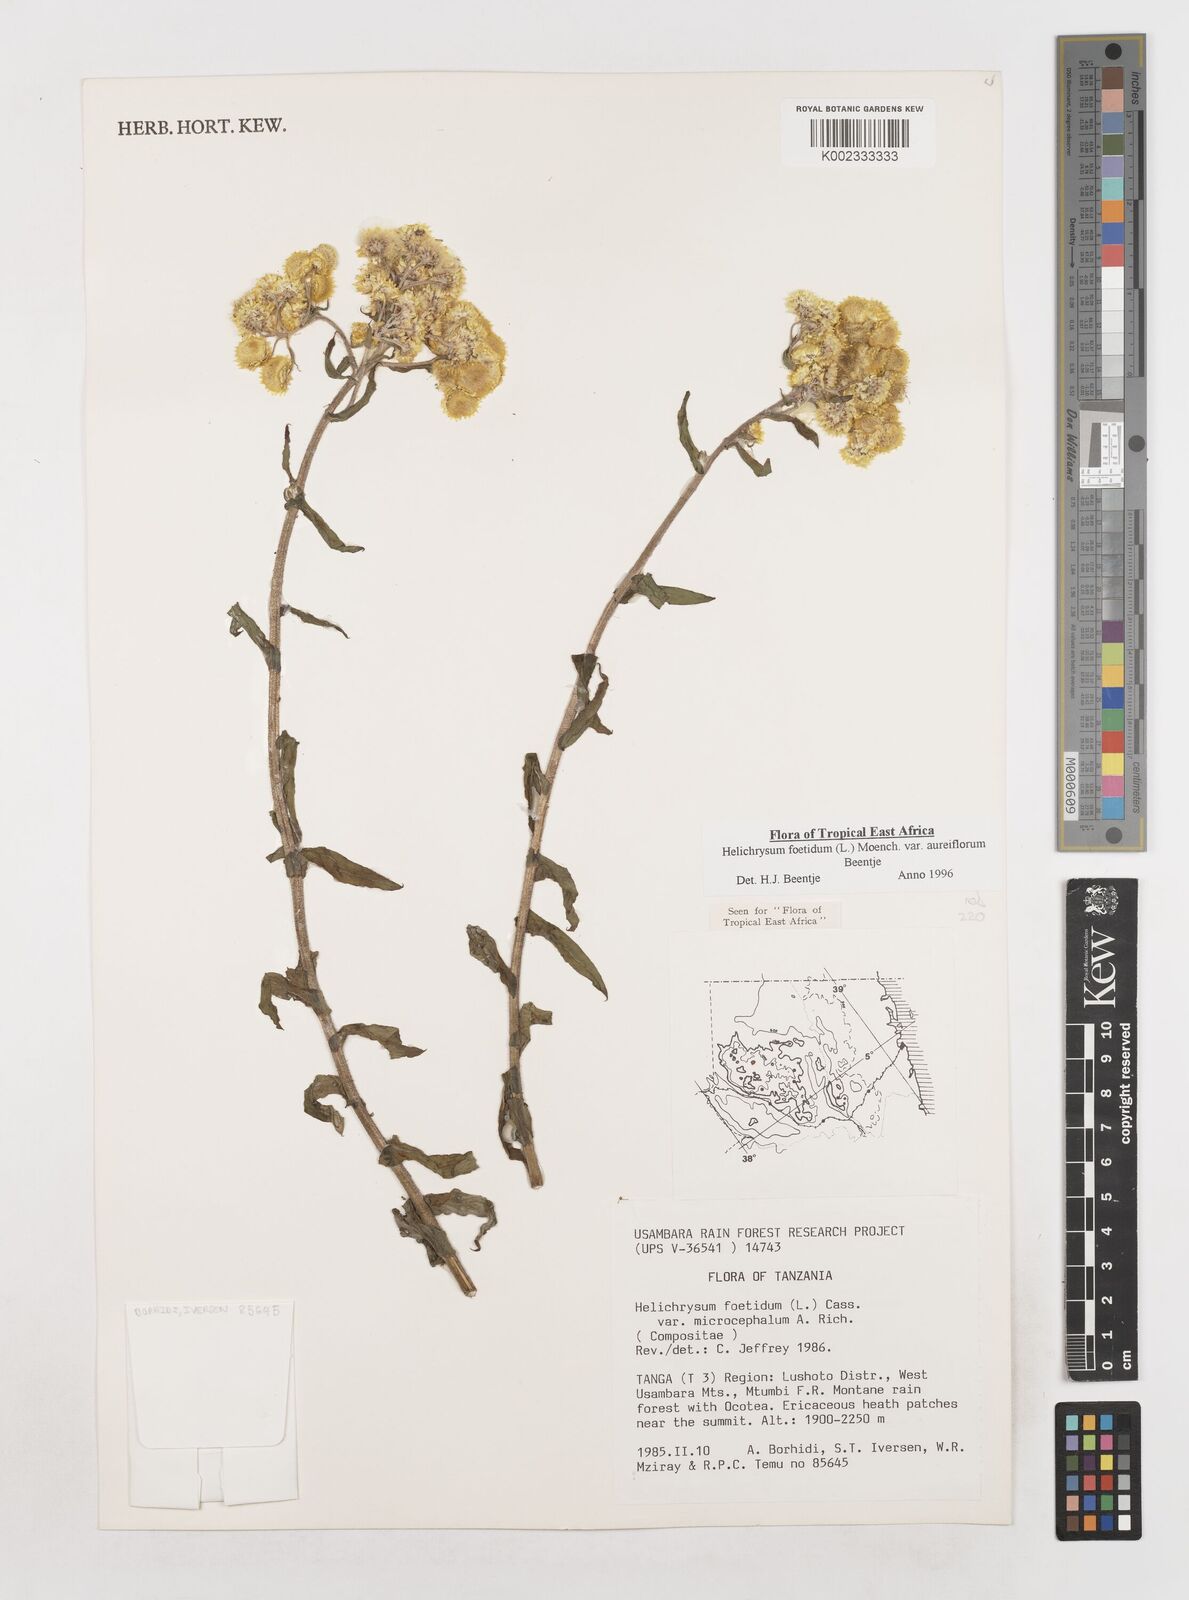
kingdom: Plantae
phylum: Tracheophyta
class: Magnoliopsida
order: Asterales
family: Asteraceae
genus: Helichrysum
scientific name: Helichrysum foetidum
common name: Stinking everlasting
